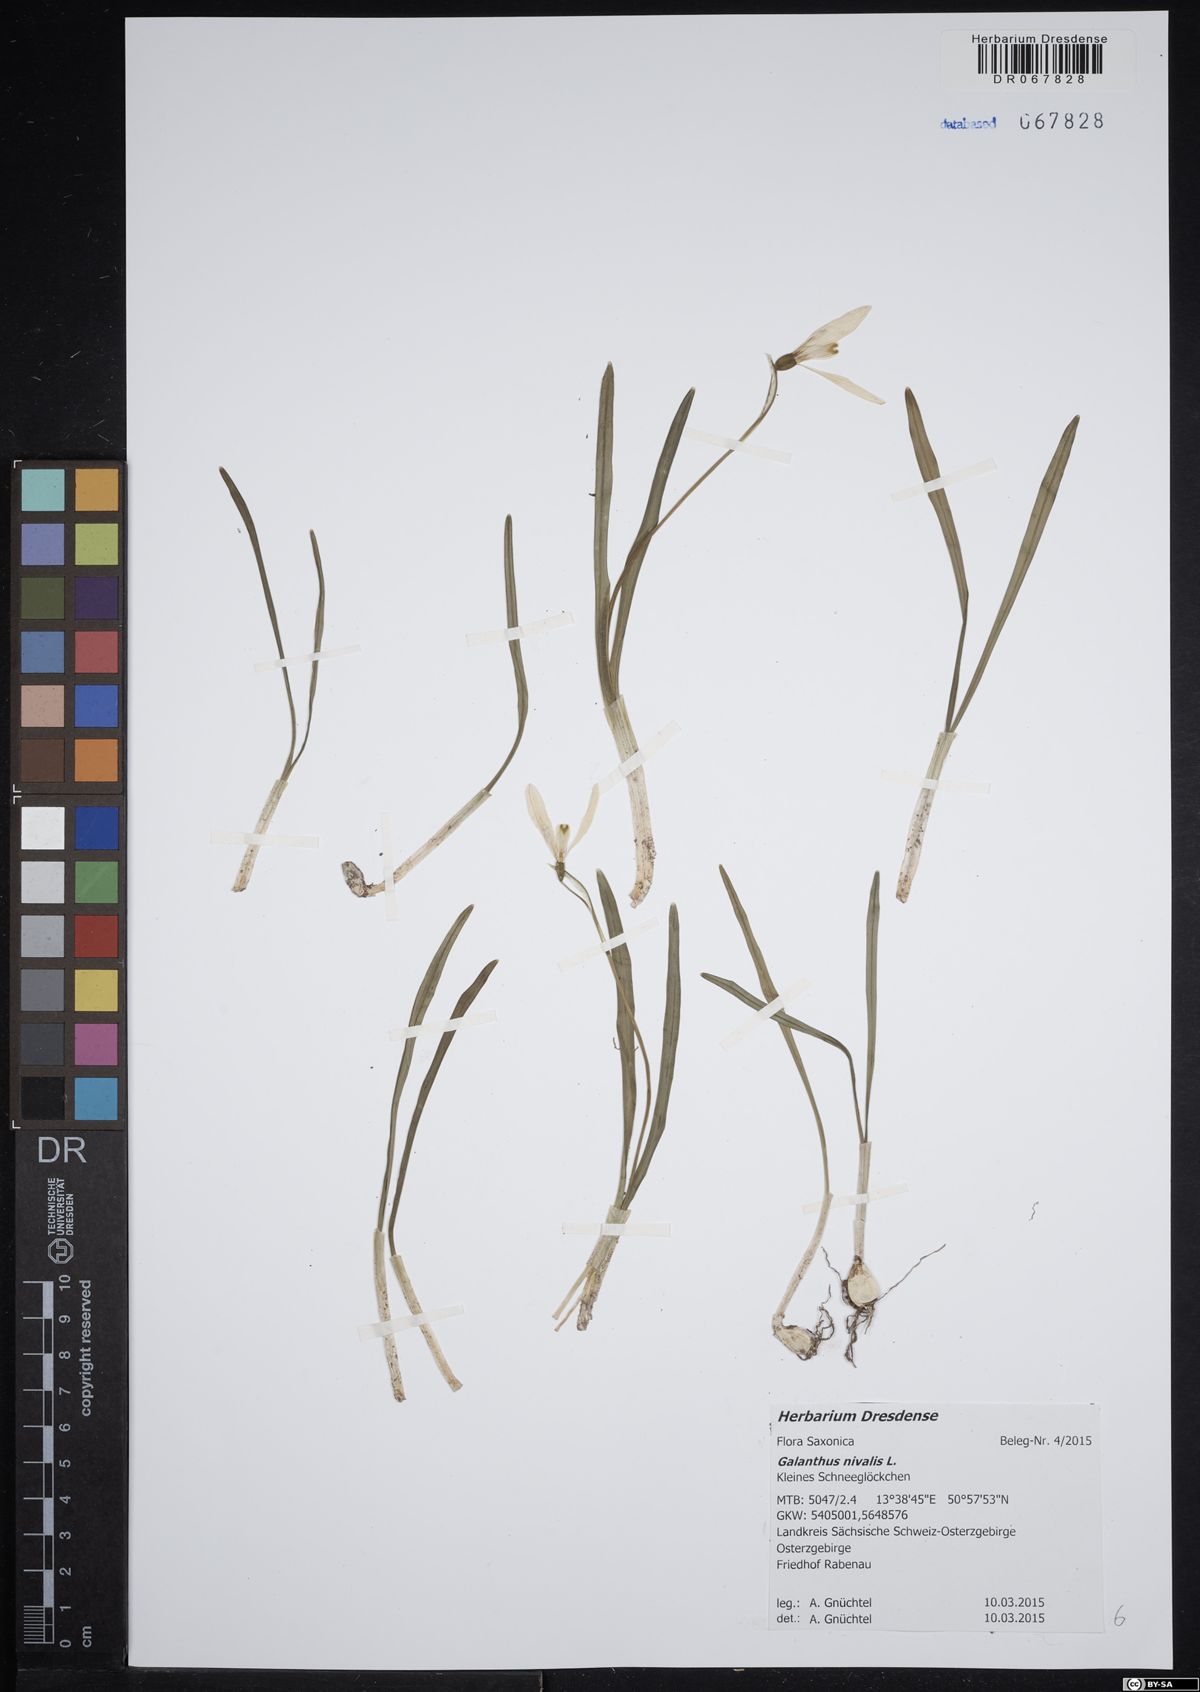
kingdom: Plantae
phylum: Tracheophyta
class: Liliopsida
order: Asparagales
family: Amaryllidaceae
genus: Galanthus
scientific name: Galanthus nivalis
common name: Snowdrop
